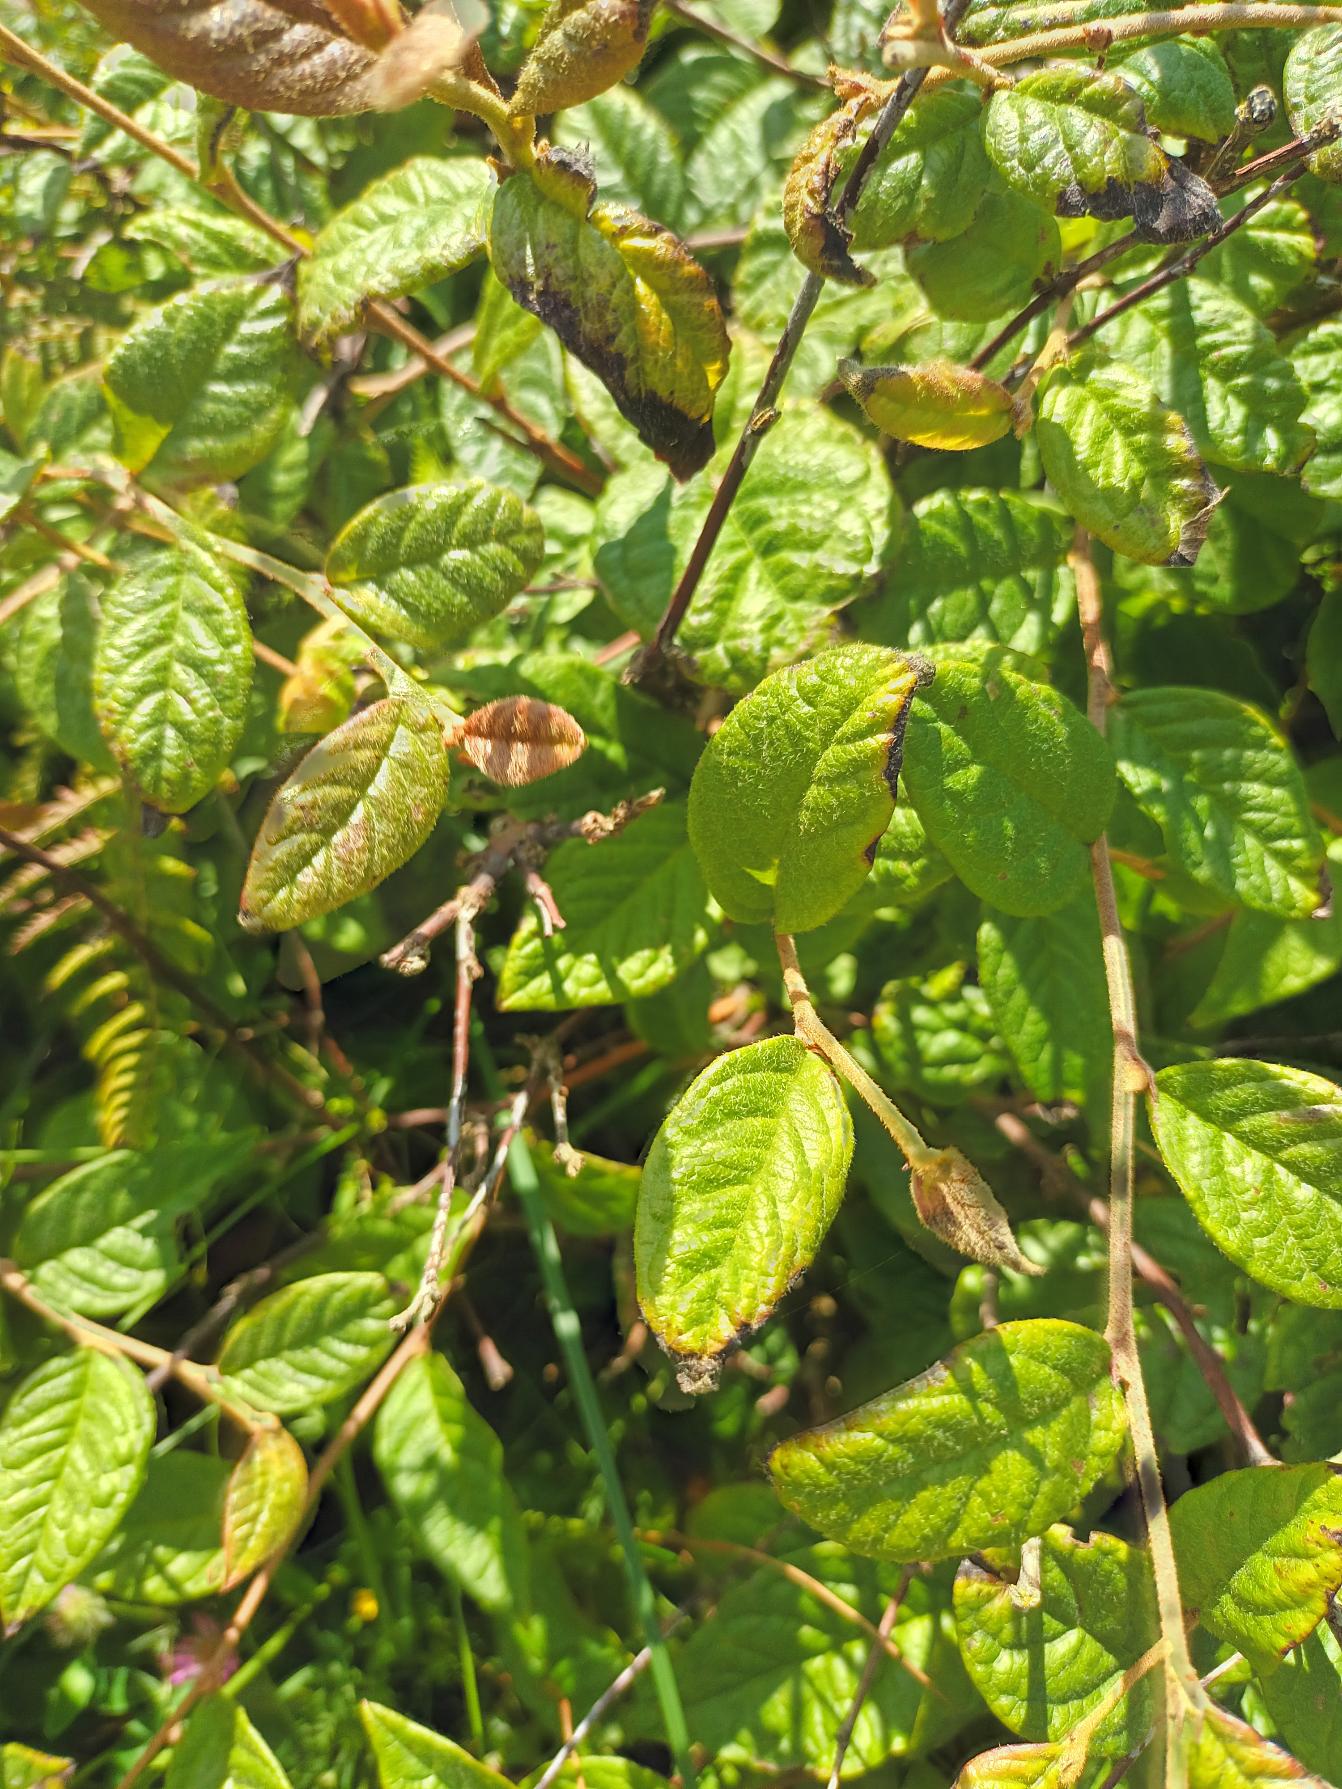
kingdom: Plantae
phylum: Tracheophyta
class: Magnoliopsida
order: Rosales
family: Rosaceae
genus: Cotoneaster
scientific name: Cotoneaster bullatus
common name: Buklet dværgmispel
